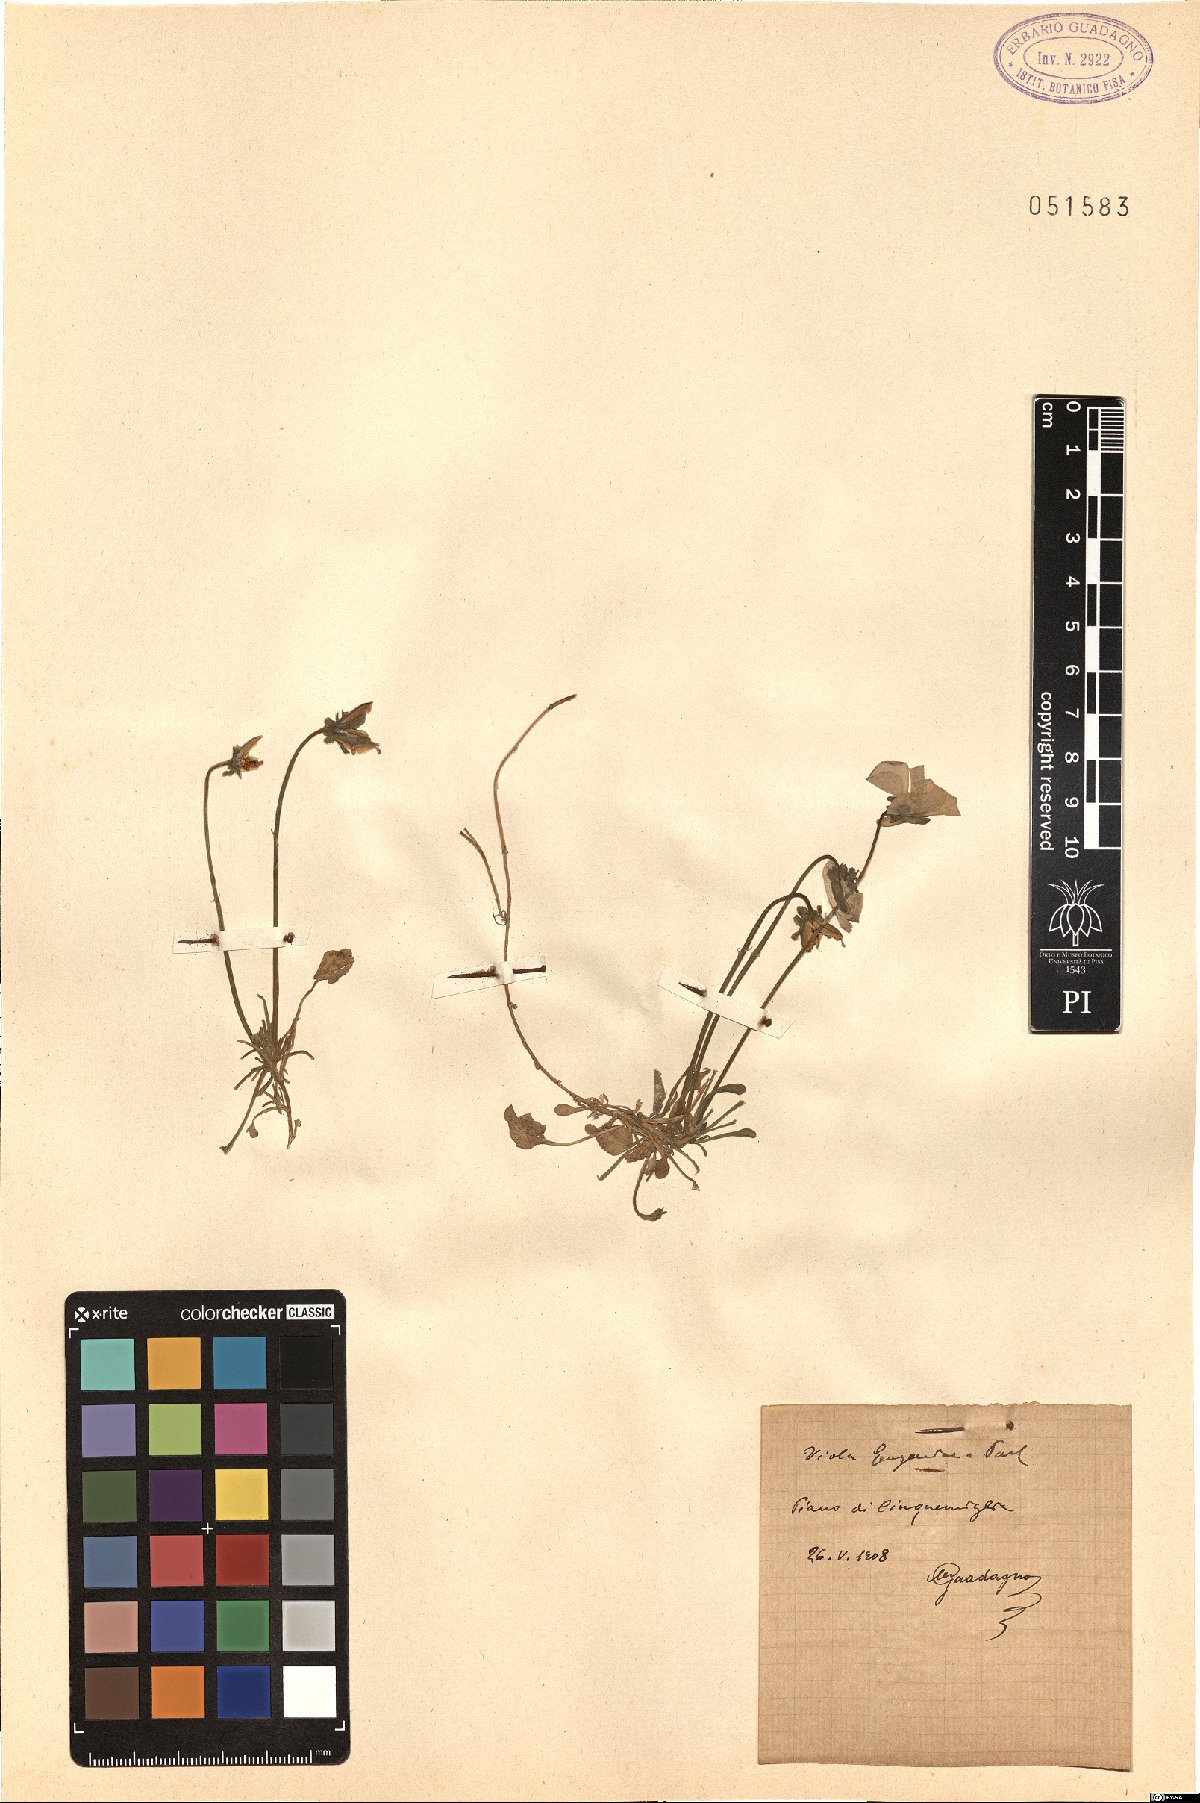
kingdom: Plantae
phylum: Tracheophyta
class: Magnoliopsida
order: Malpighiales
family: Violaceae
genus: Viola
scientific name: Viola eugeniae
